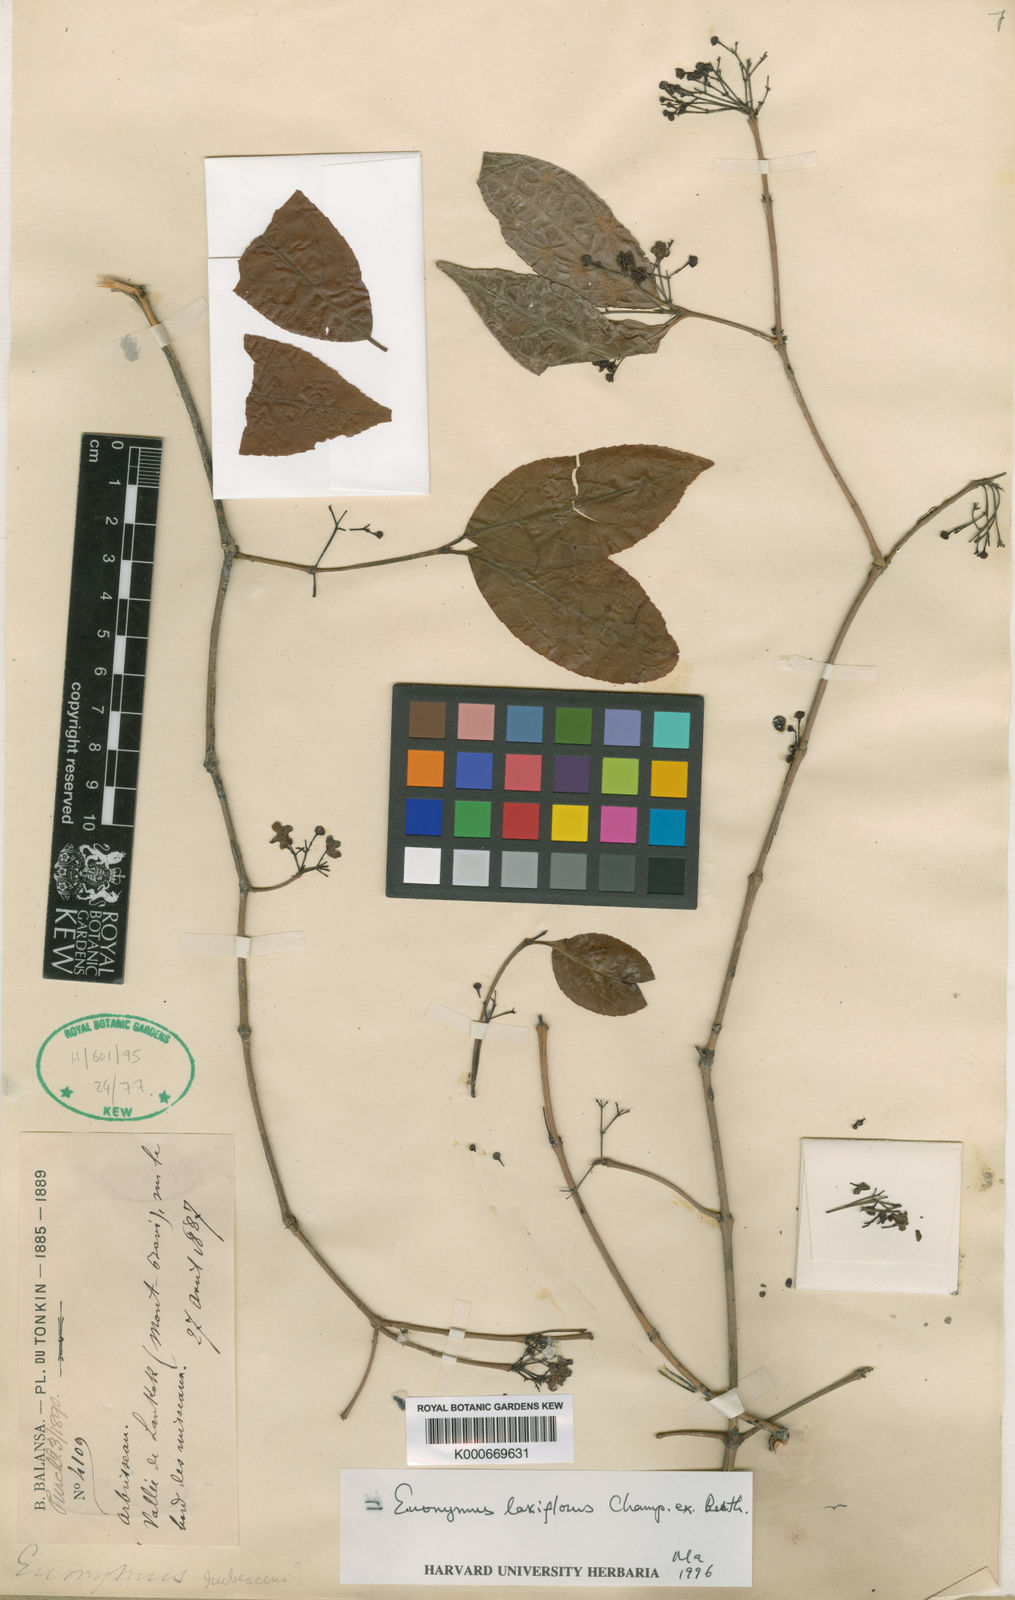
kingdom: Plantae
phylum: Tracheophyta
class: Magnoliopsida
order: Celastrales
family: Celastraceae
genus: Euonymus
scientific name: Euonymus laxiflorus
